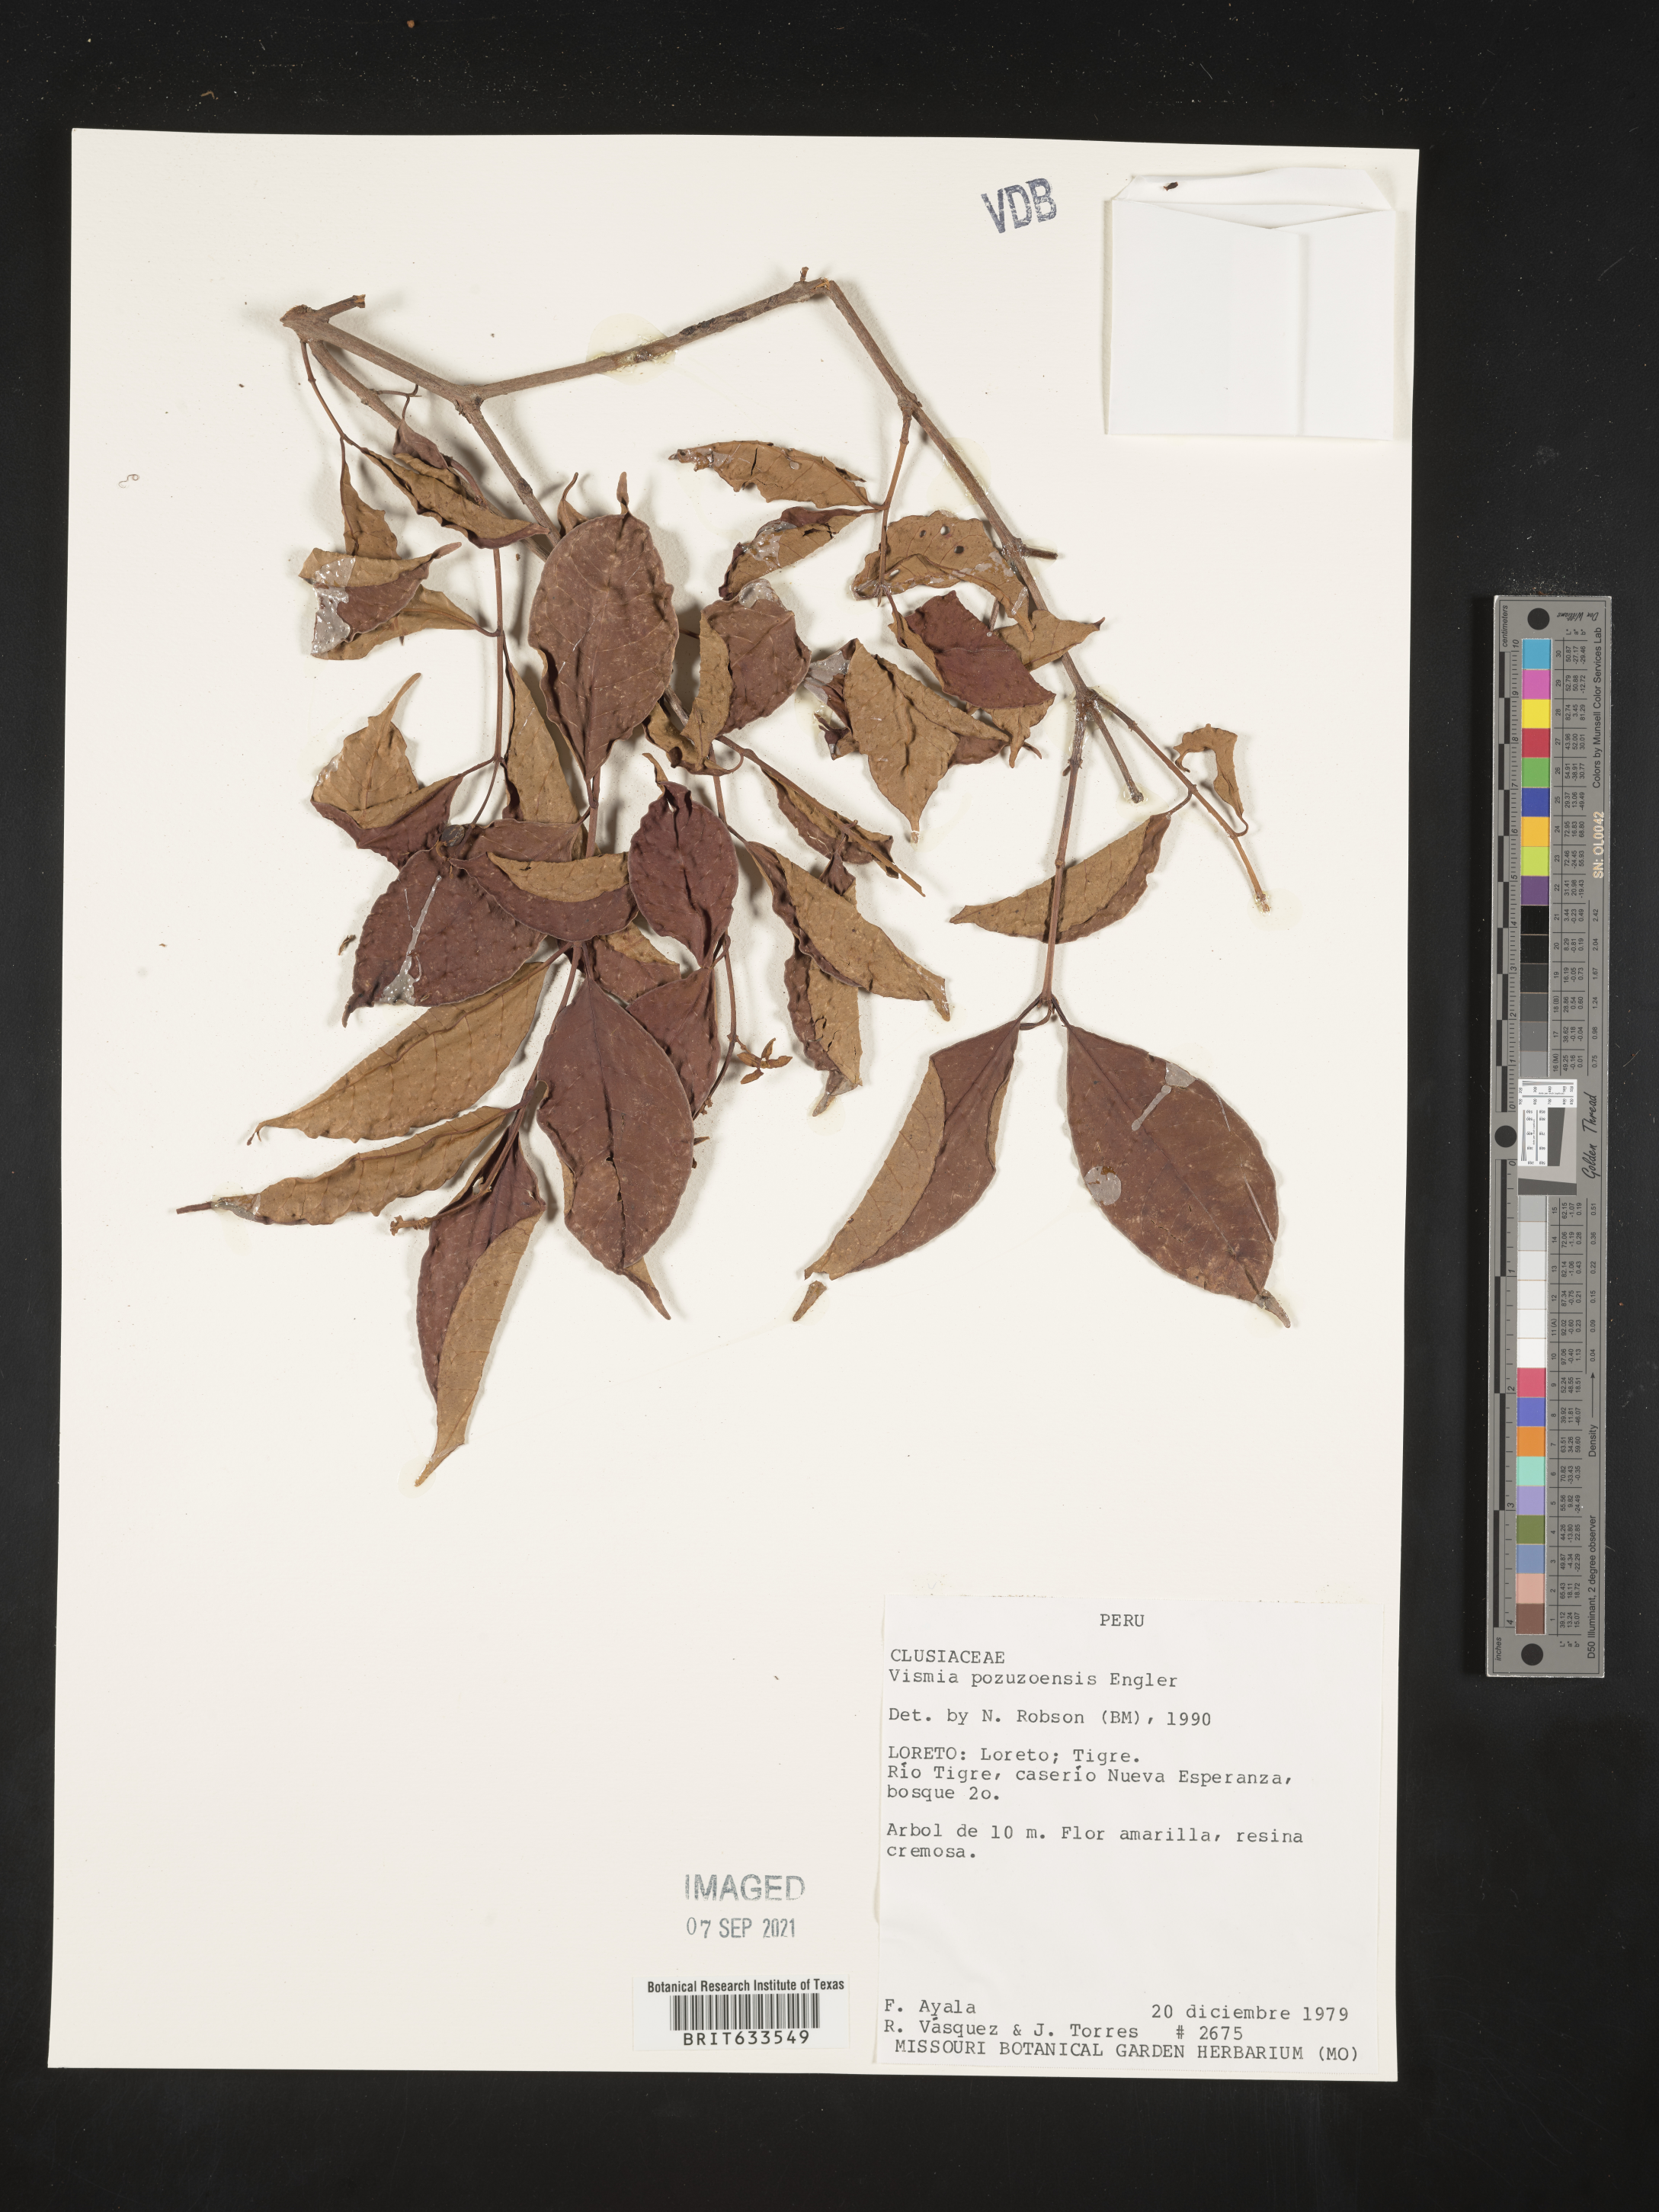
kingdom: Plantae
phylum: Tracheophyta
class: Magnoliopsida
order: Malpighiales
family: Hypericaceae
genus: Vismia
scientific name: Vismia
